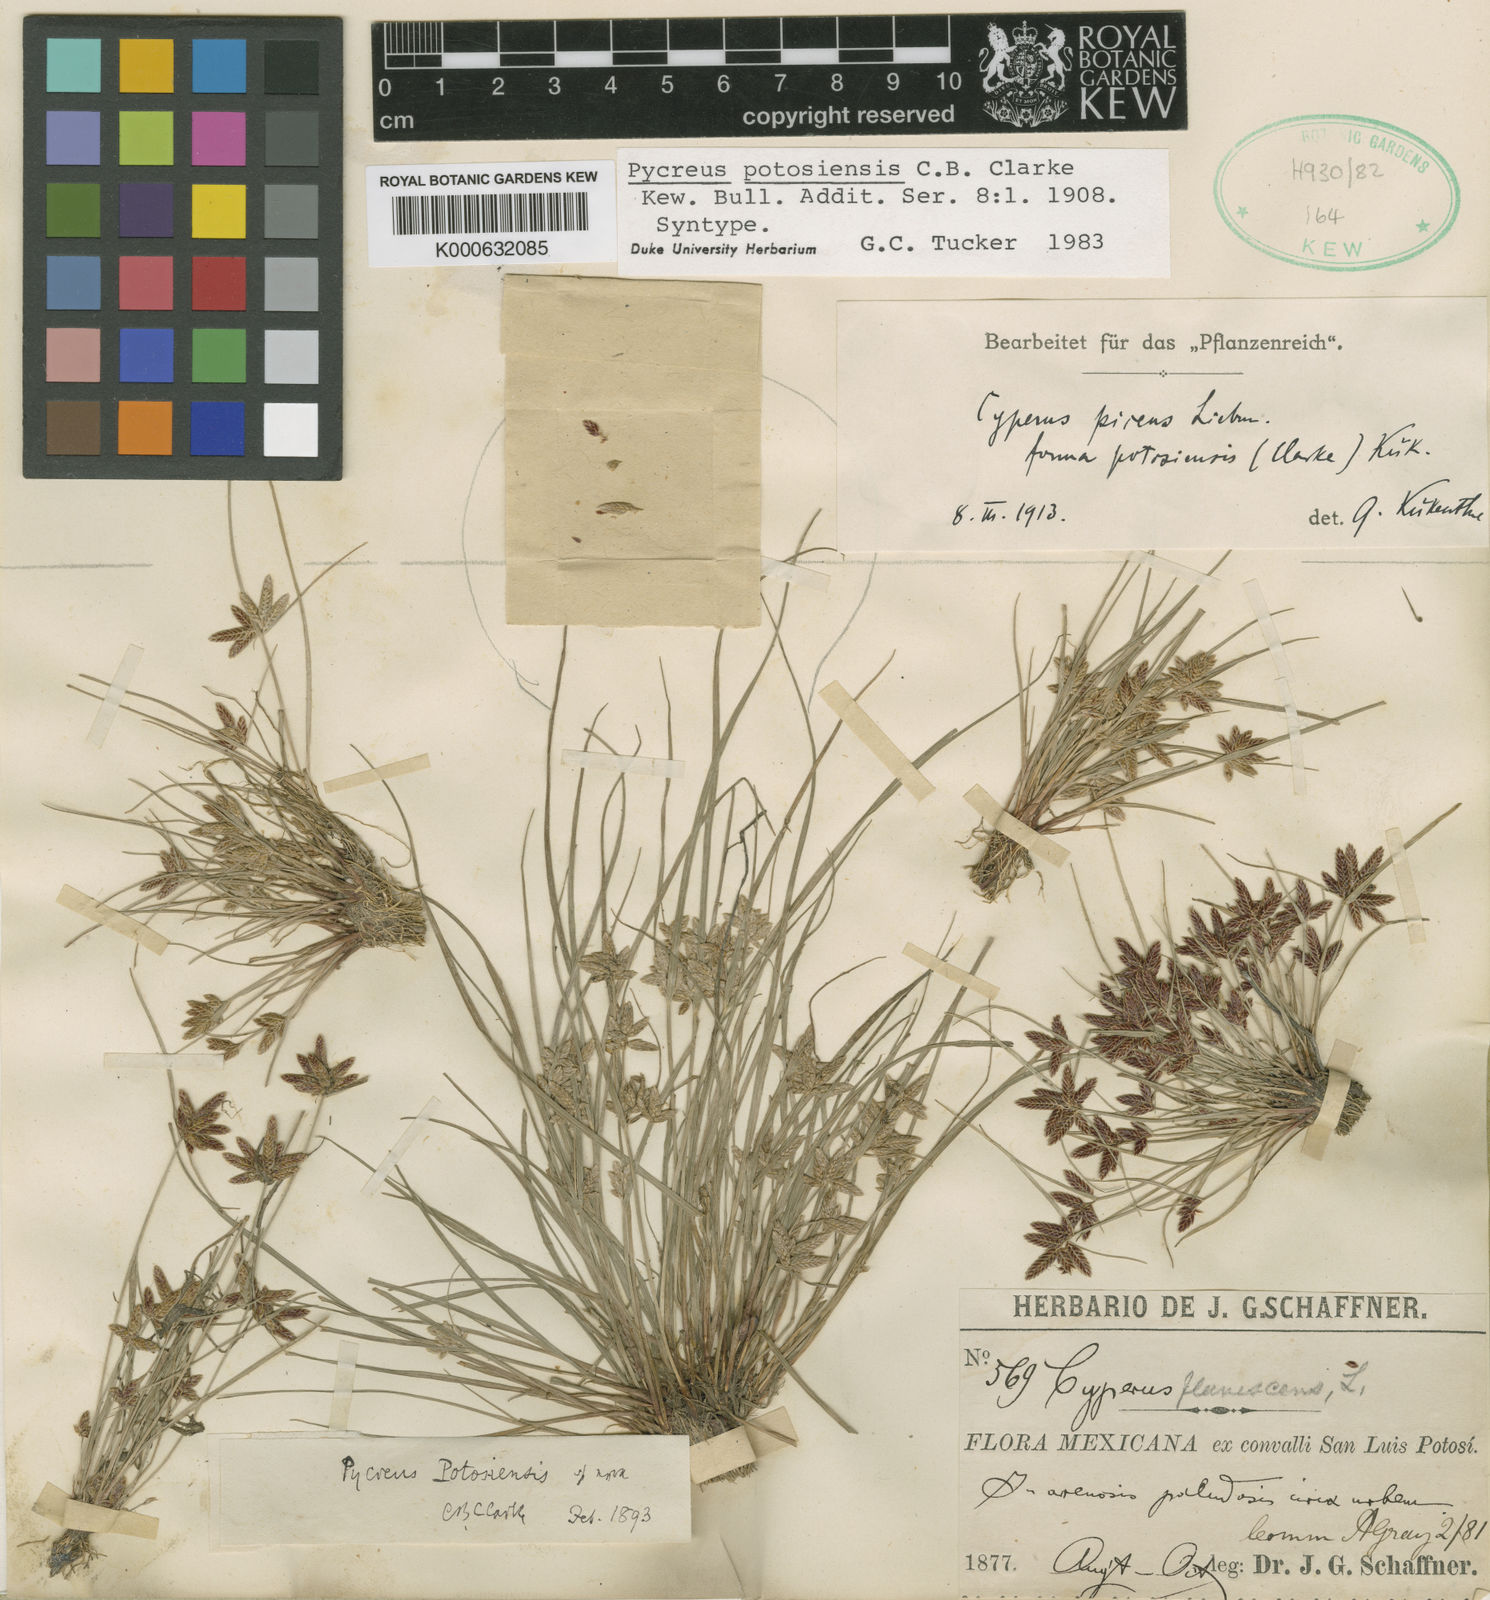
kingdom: Plantae
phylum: Tracheophyta
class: Liliopsida
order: Poales
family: Cyperaceae
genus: Cyperus
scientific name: Cyperus flavescens
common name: Yellow galingale
